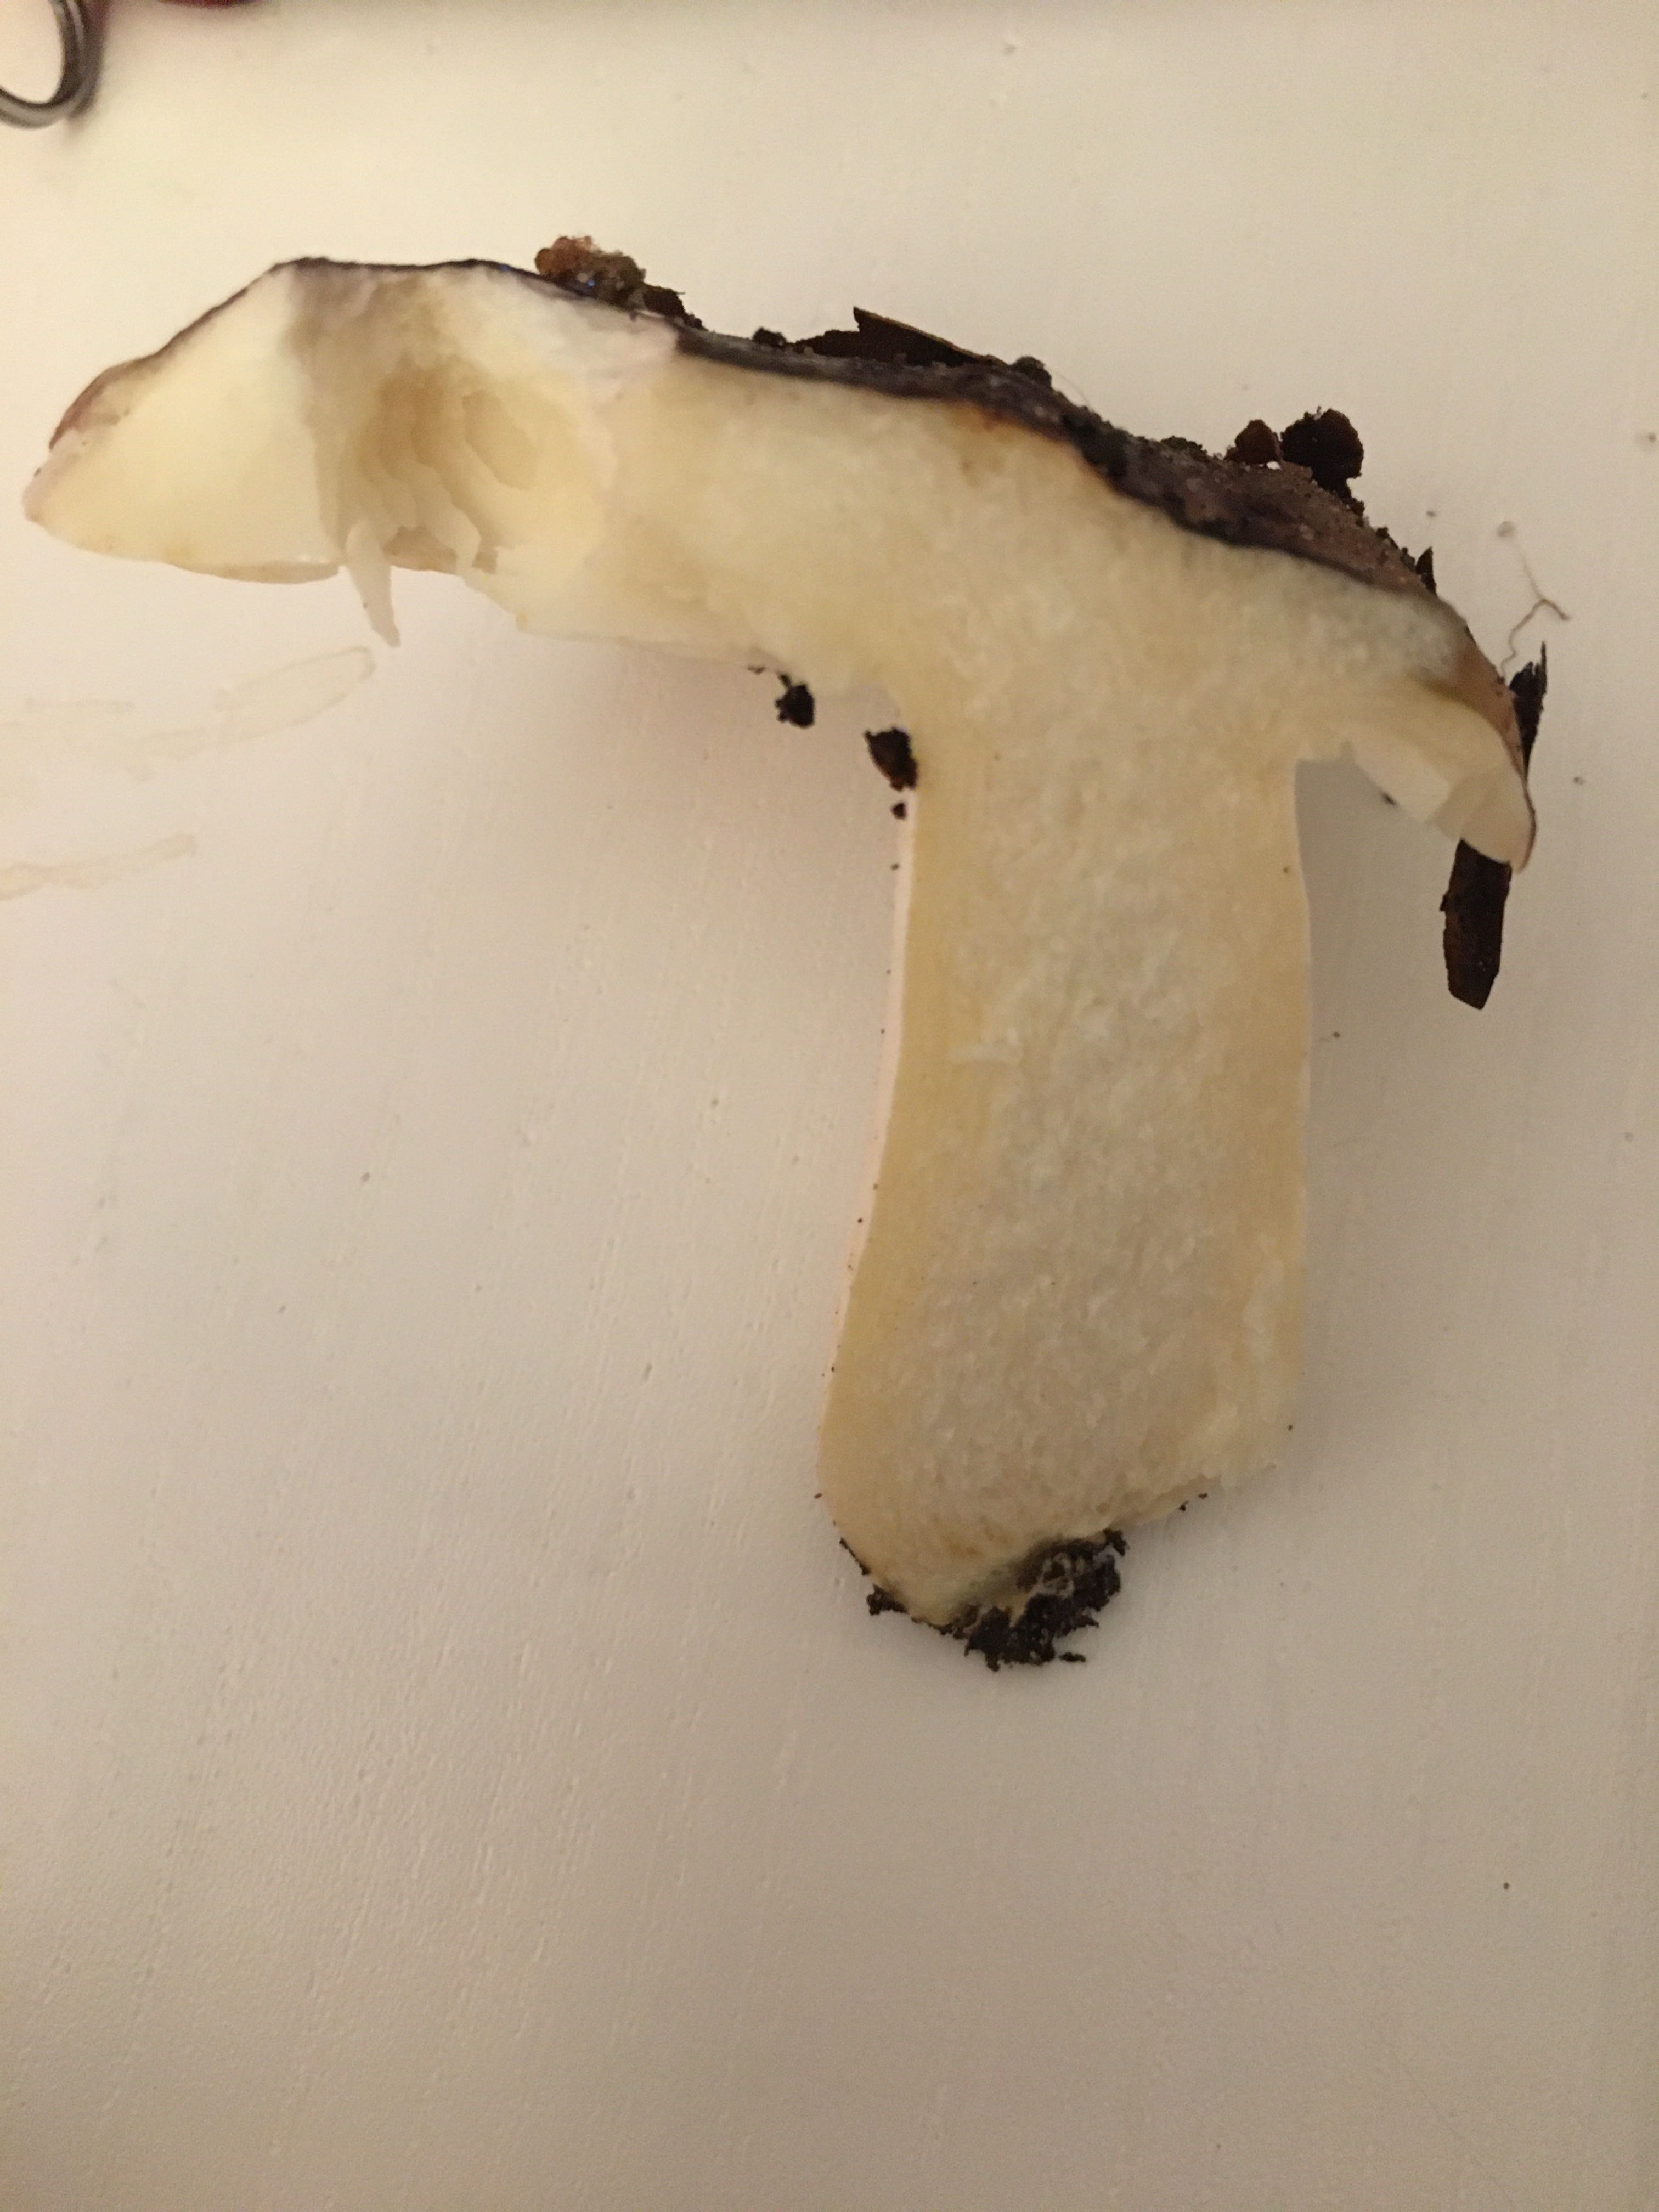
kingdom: Fungi
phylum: Basidiomycota
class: Agaricomycetes
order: Russulales
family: Russulaceae
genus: Russula
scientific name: Russula cyanoxantha
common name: broget skørhat
